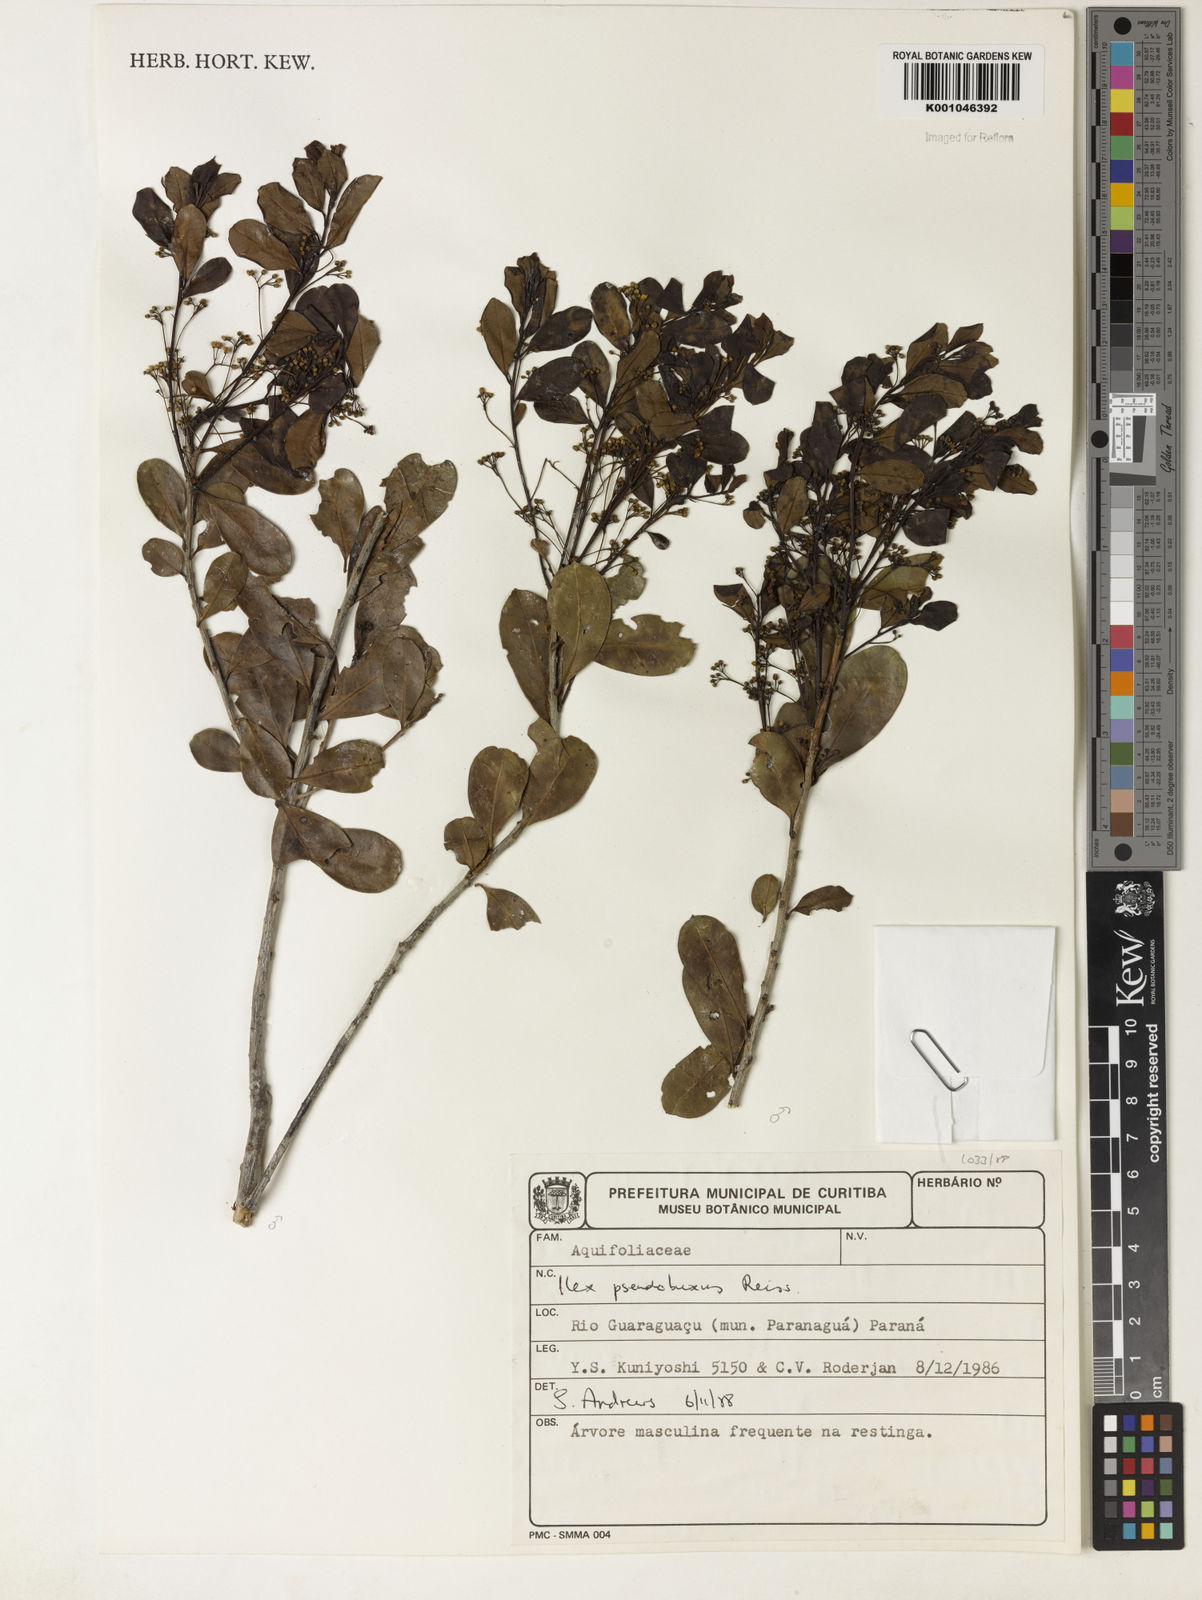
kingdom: Plantae
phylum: Tracheophyta
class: Magnoliopsida
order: Aquifoliales
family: Aquifoliaceae
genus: Ilex
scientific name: Ilex pseudobuxus
